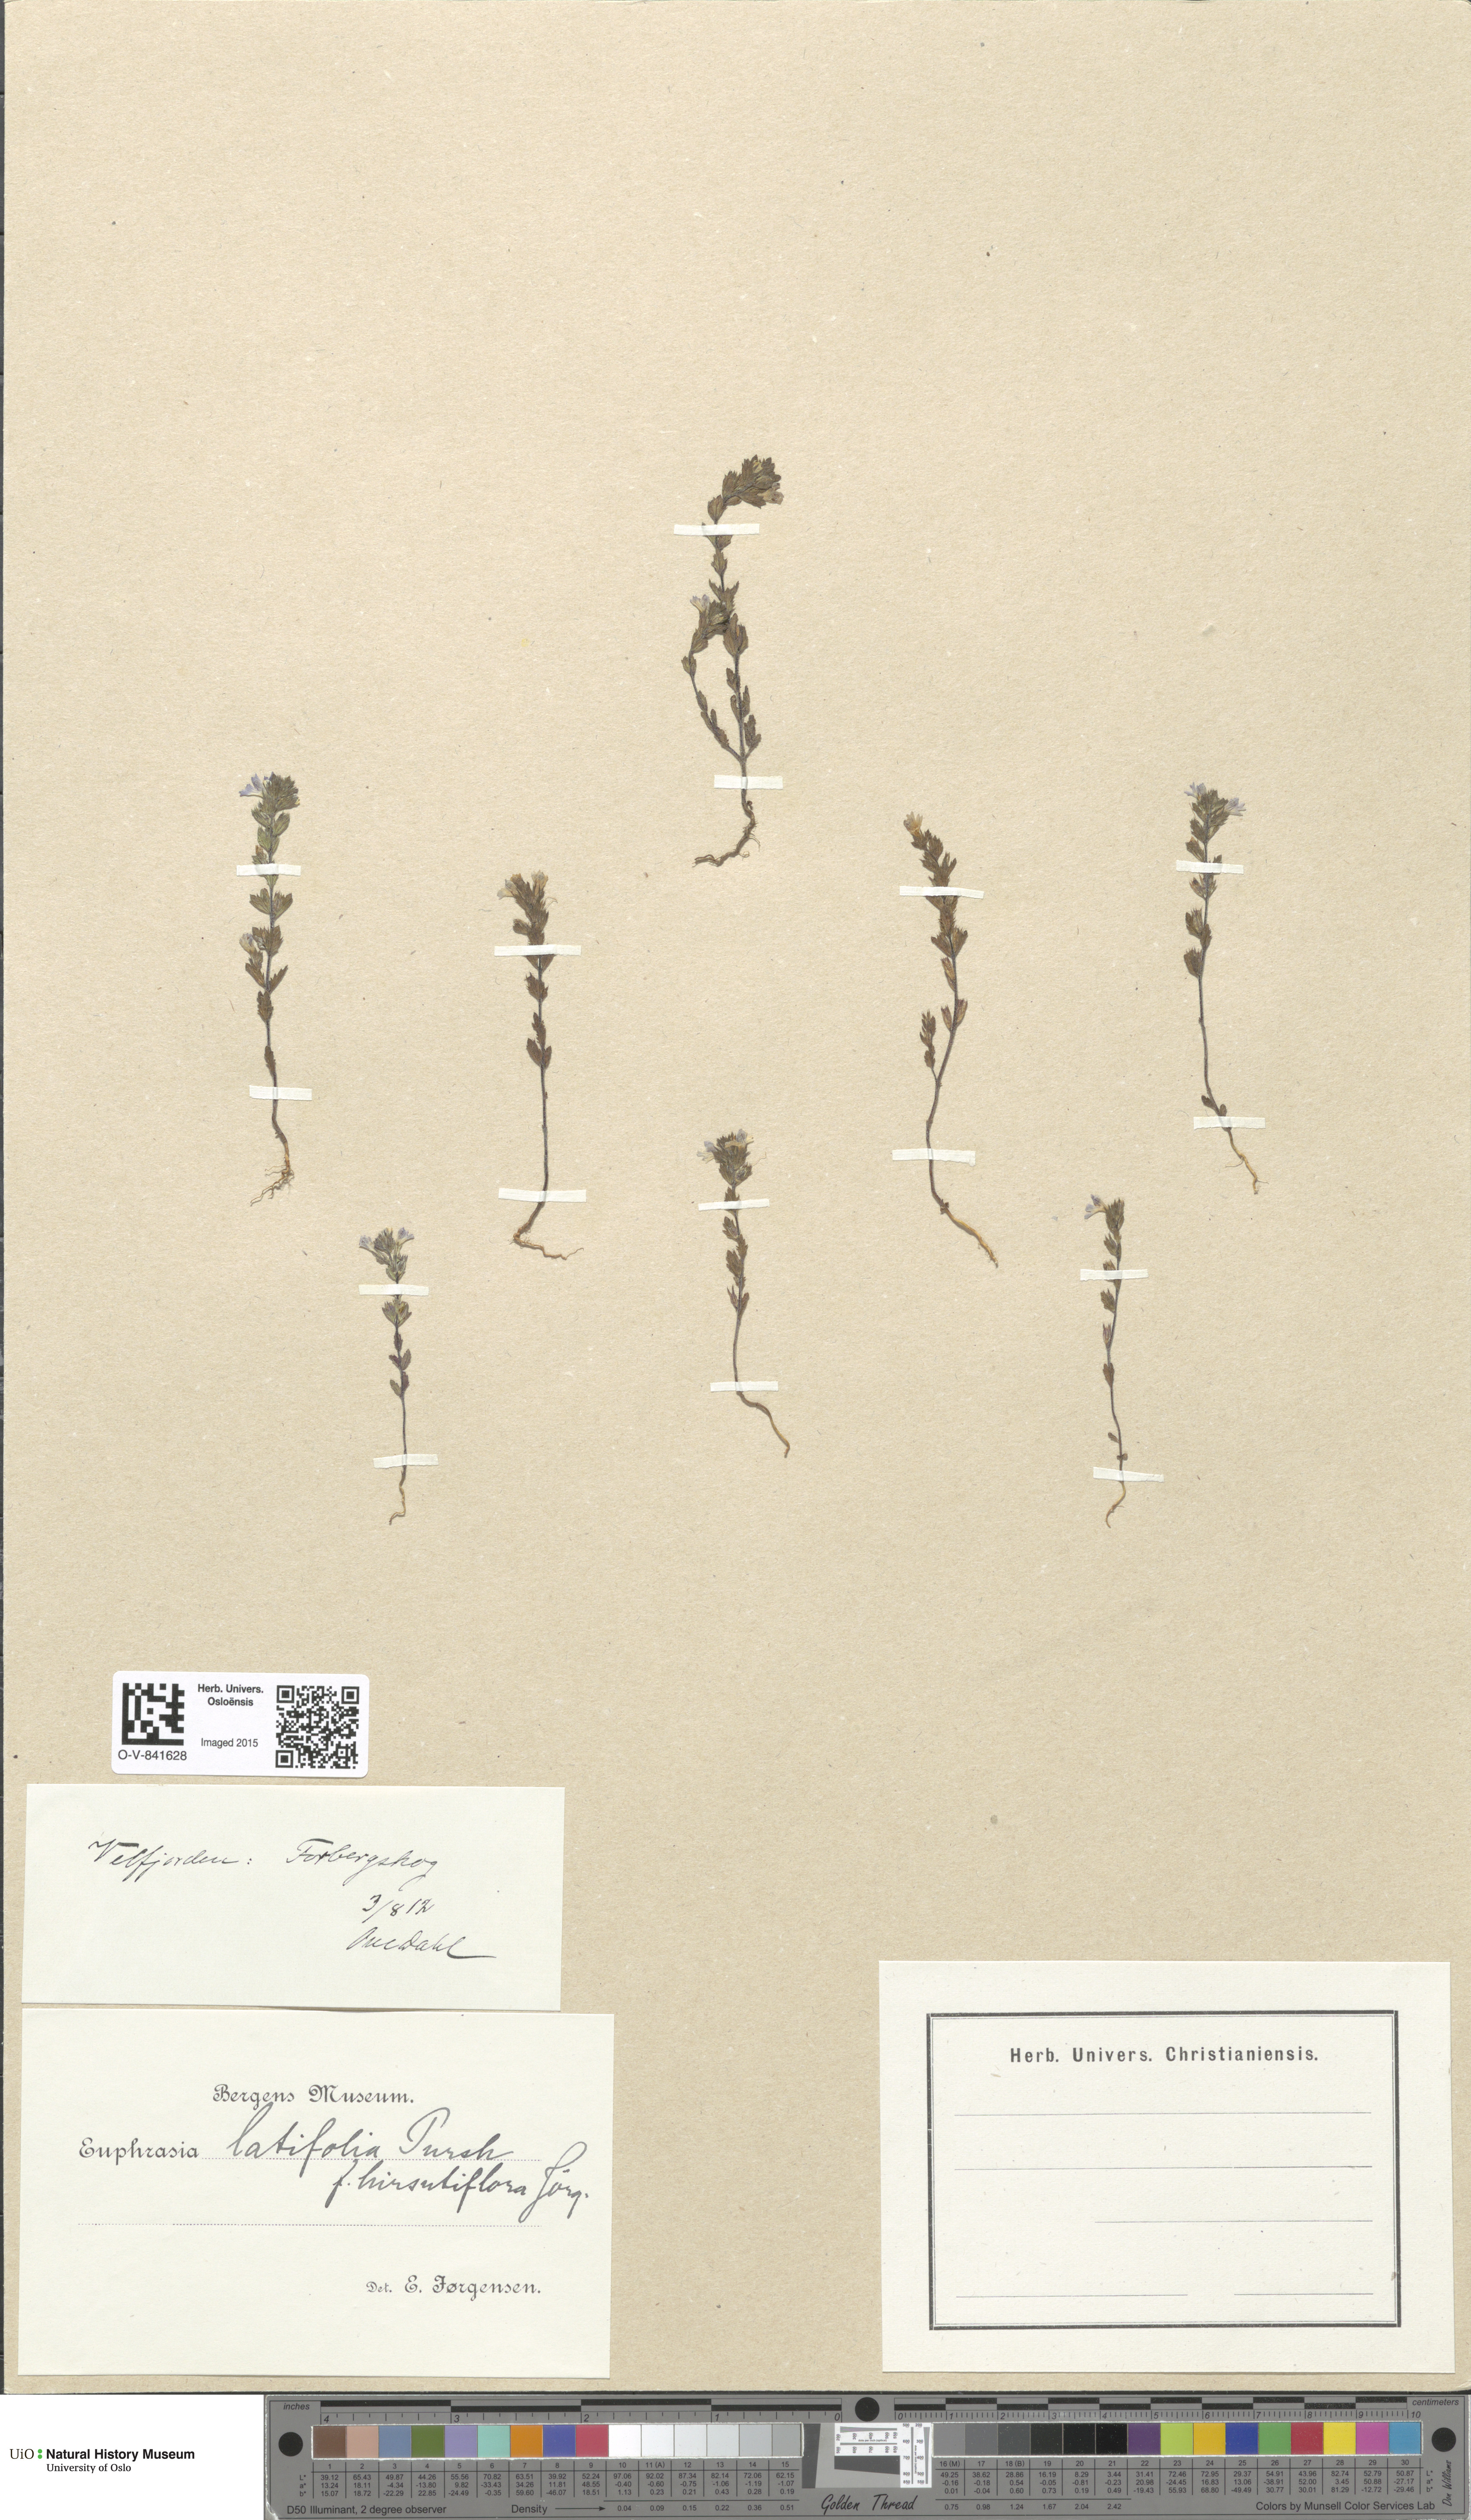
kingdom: Plantae
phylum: Tracheophyta
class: Magnoliopsida
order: Lamiales
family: Orobanchaceae
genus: Euphrasia
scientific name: Euphrasia wettsteinii
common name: Wettstein's eyebright
